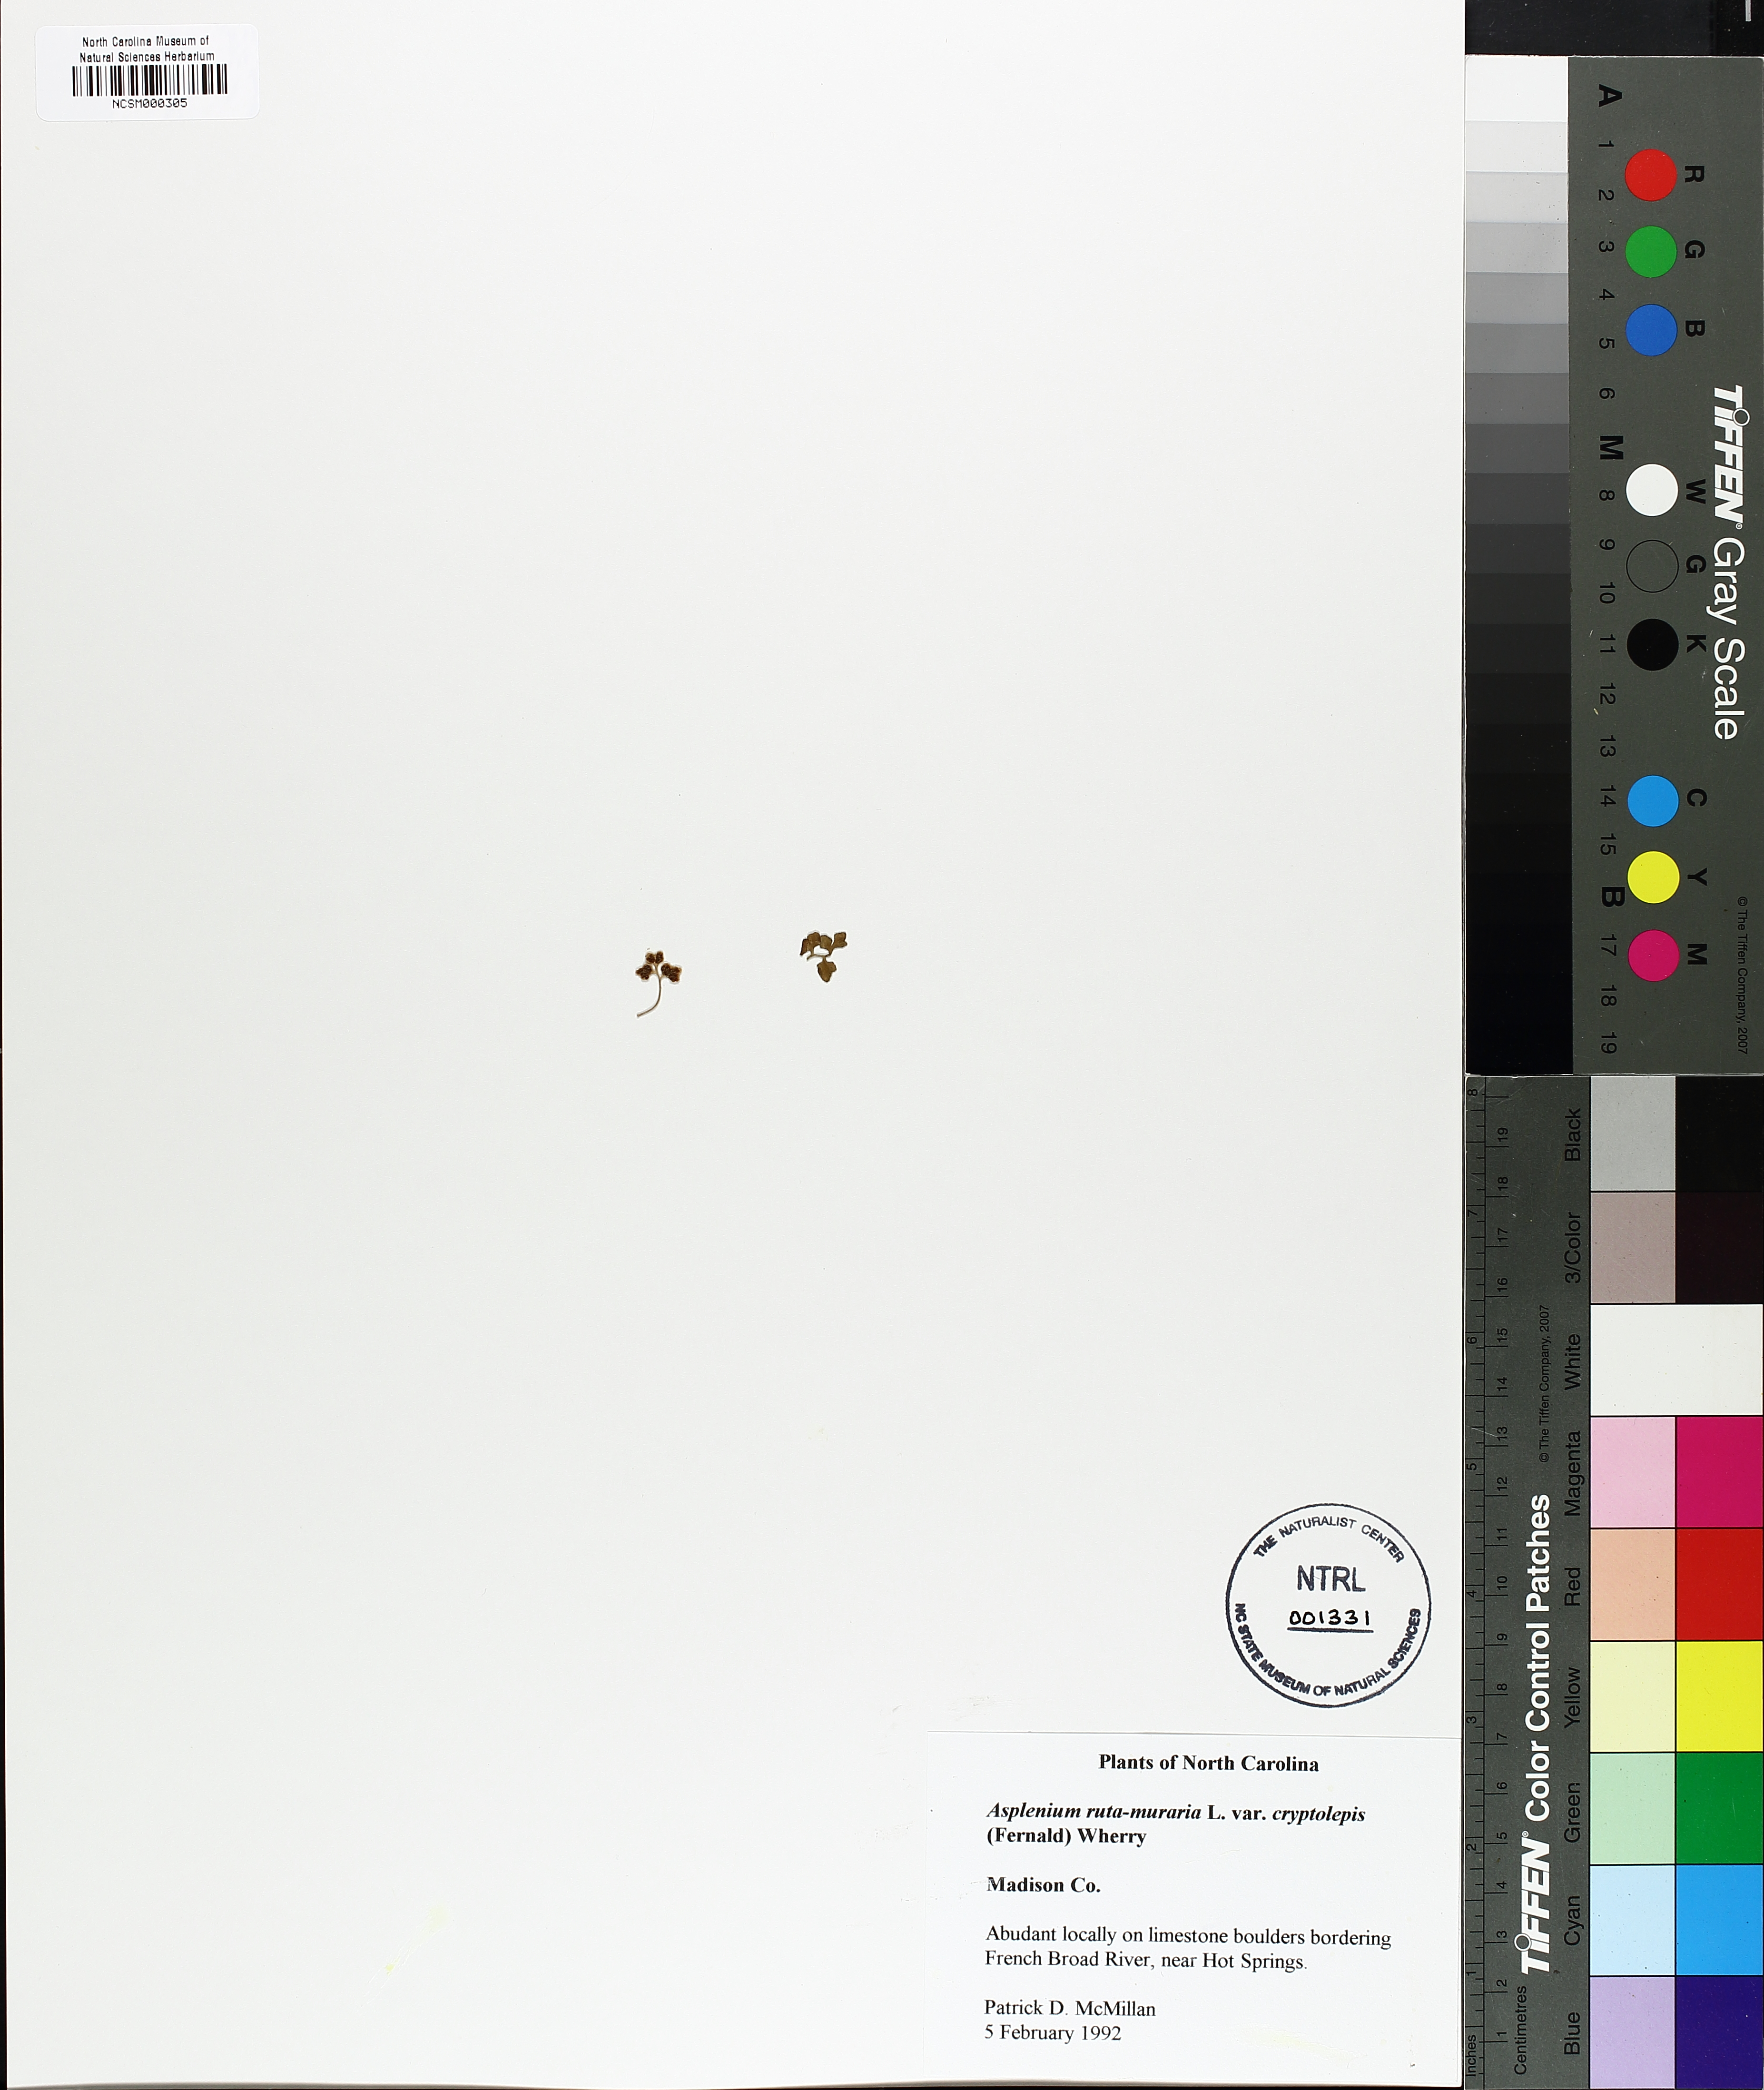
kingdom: Plantae
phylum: Tracheophyta
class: Polypodiopsida
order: Polypodiales
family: Aspleniaceae
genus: Asplenium
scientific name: Asplenium ruta-muraria
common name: Wall-rue
